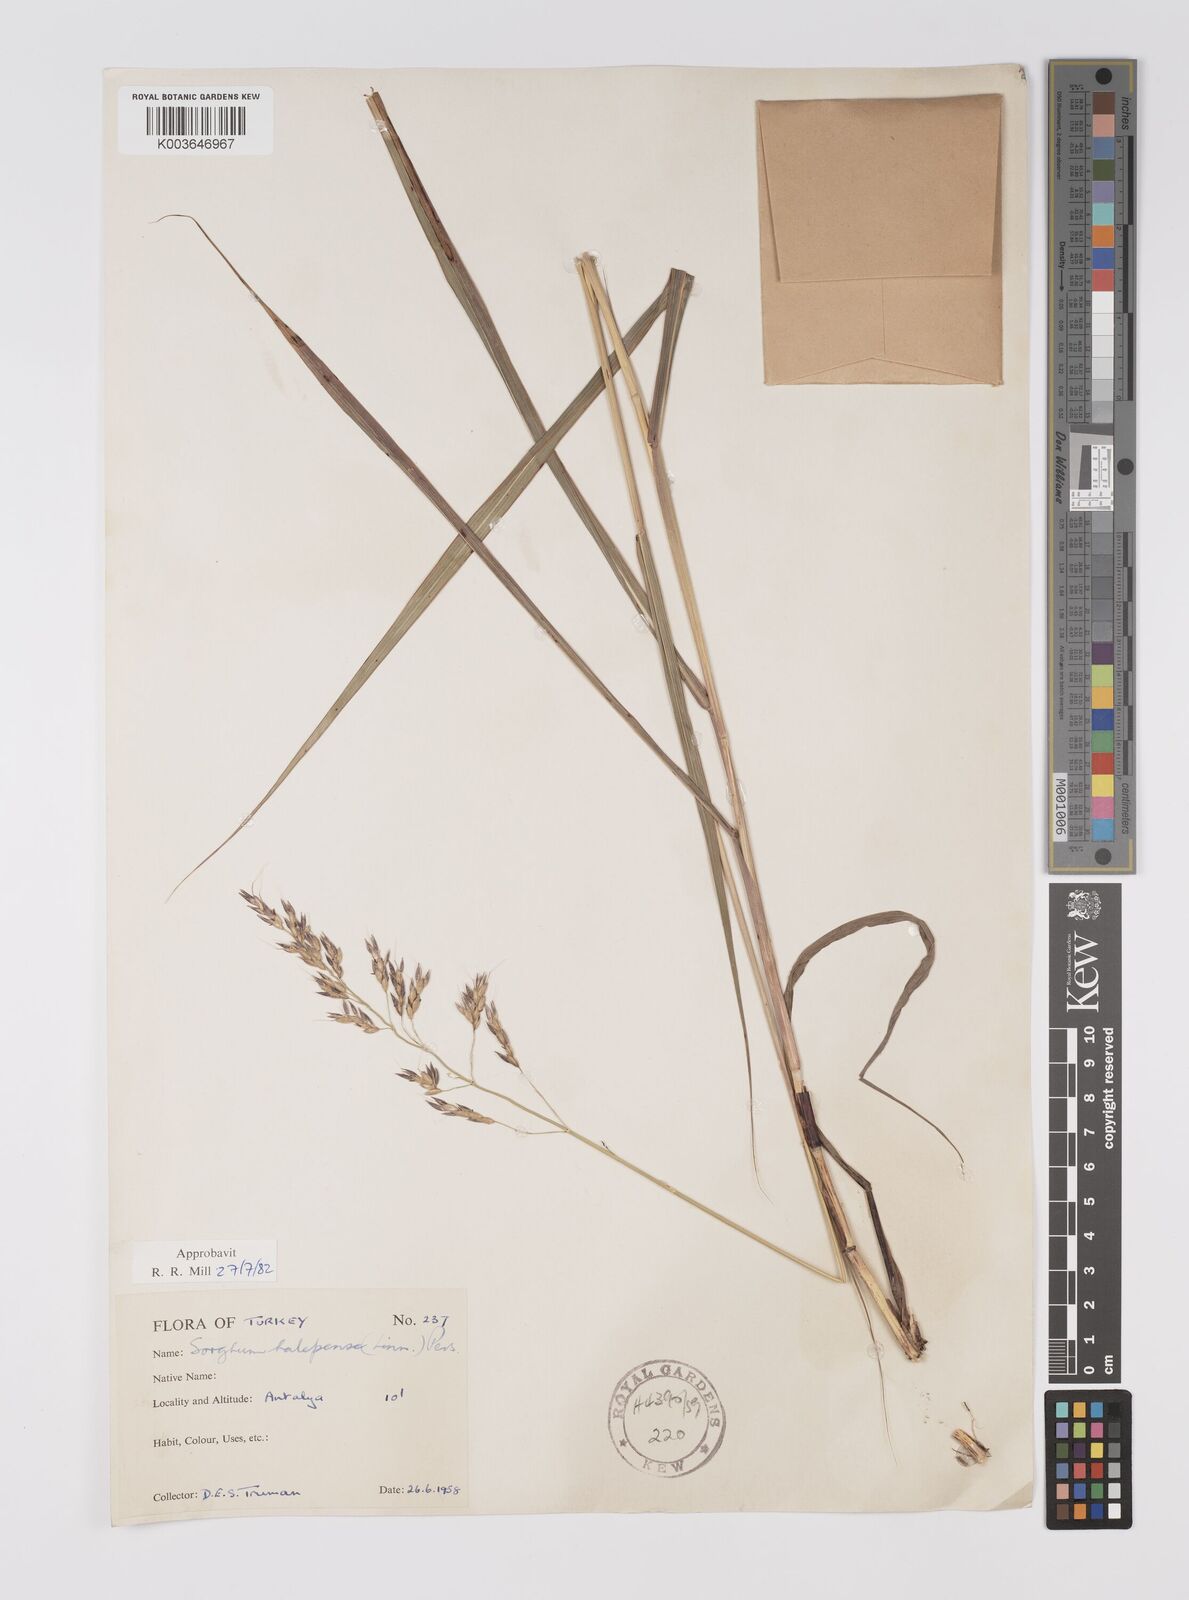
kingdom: Plantae
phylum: Tracheophyta
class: Liliopsida
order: Poales
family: Poaceae
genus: Sorghum
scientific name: Sorghum halepense
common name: Johnson-grass
